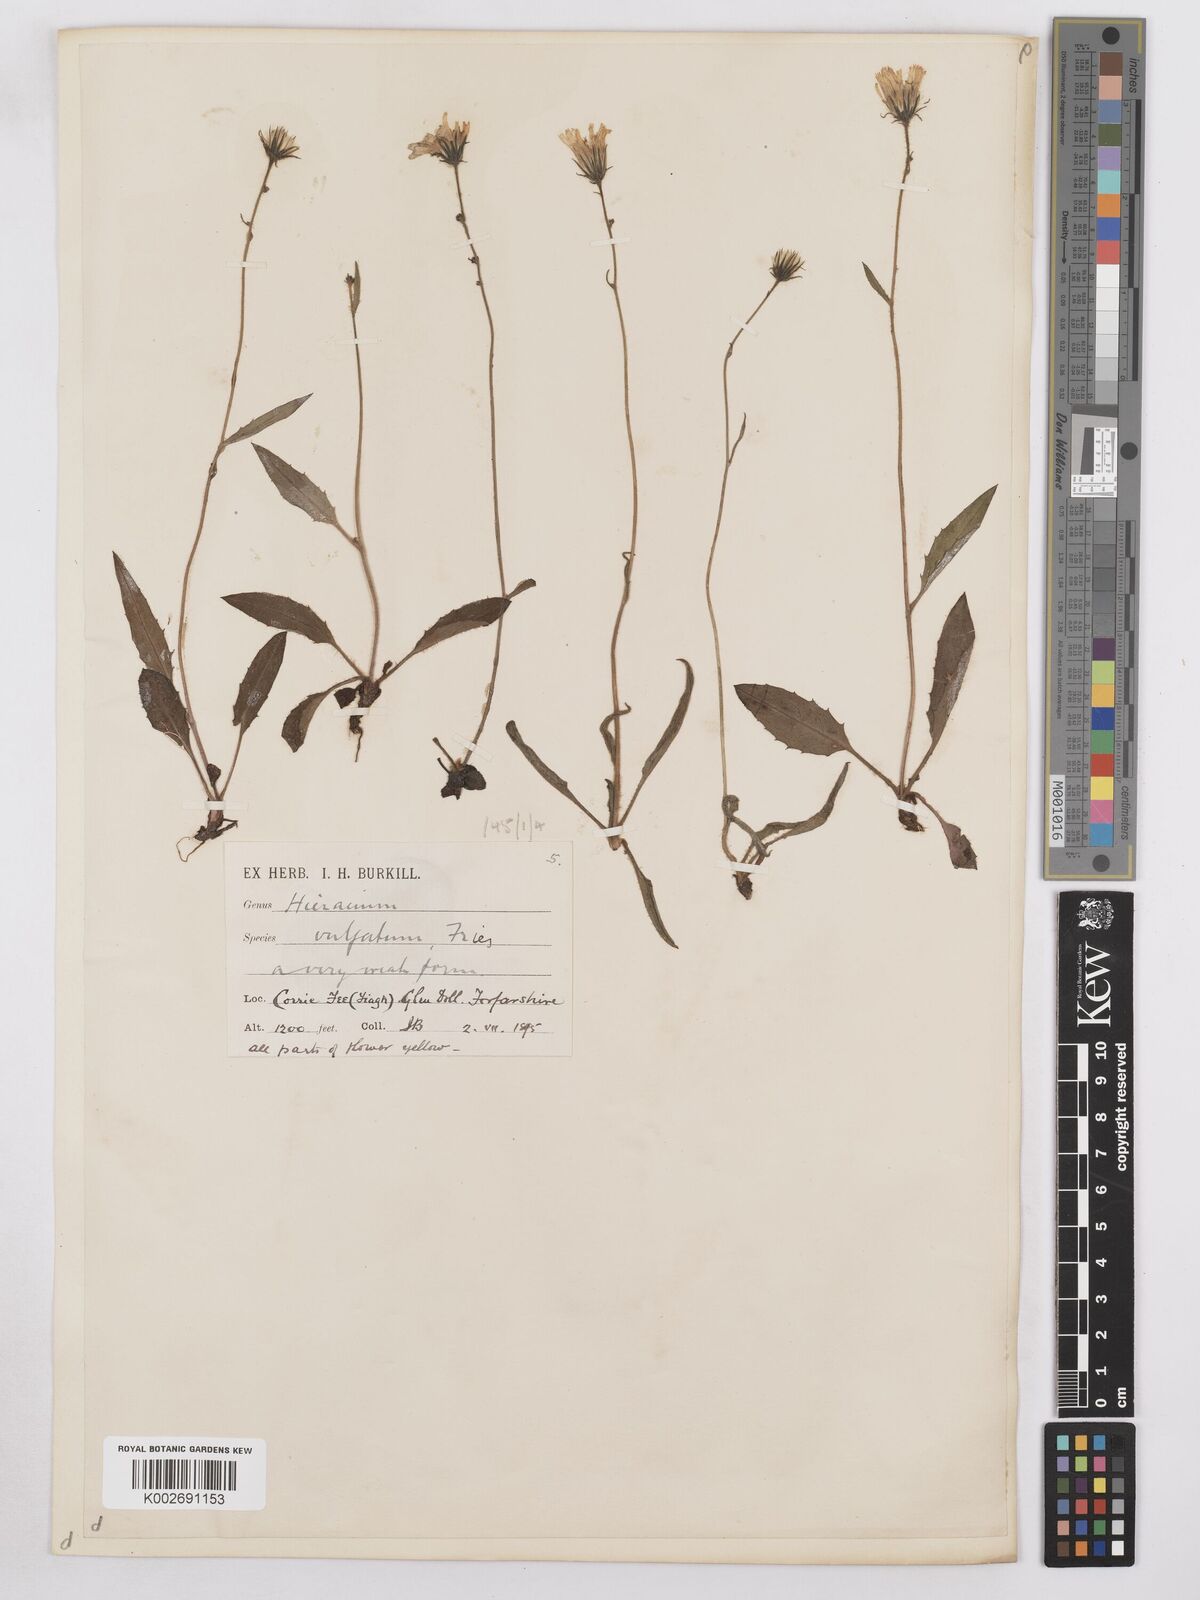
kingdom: Plantae
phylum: Tracheophyta
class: Magnoliopsida
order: Asterales
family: Asteraceae
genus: Hieracium
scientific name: Hieracium lachenalii
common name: Common hawkweed
